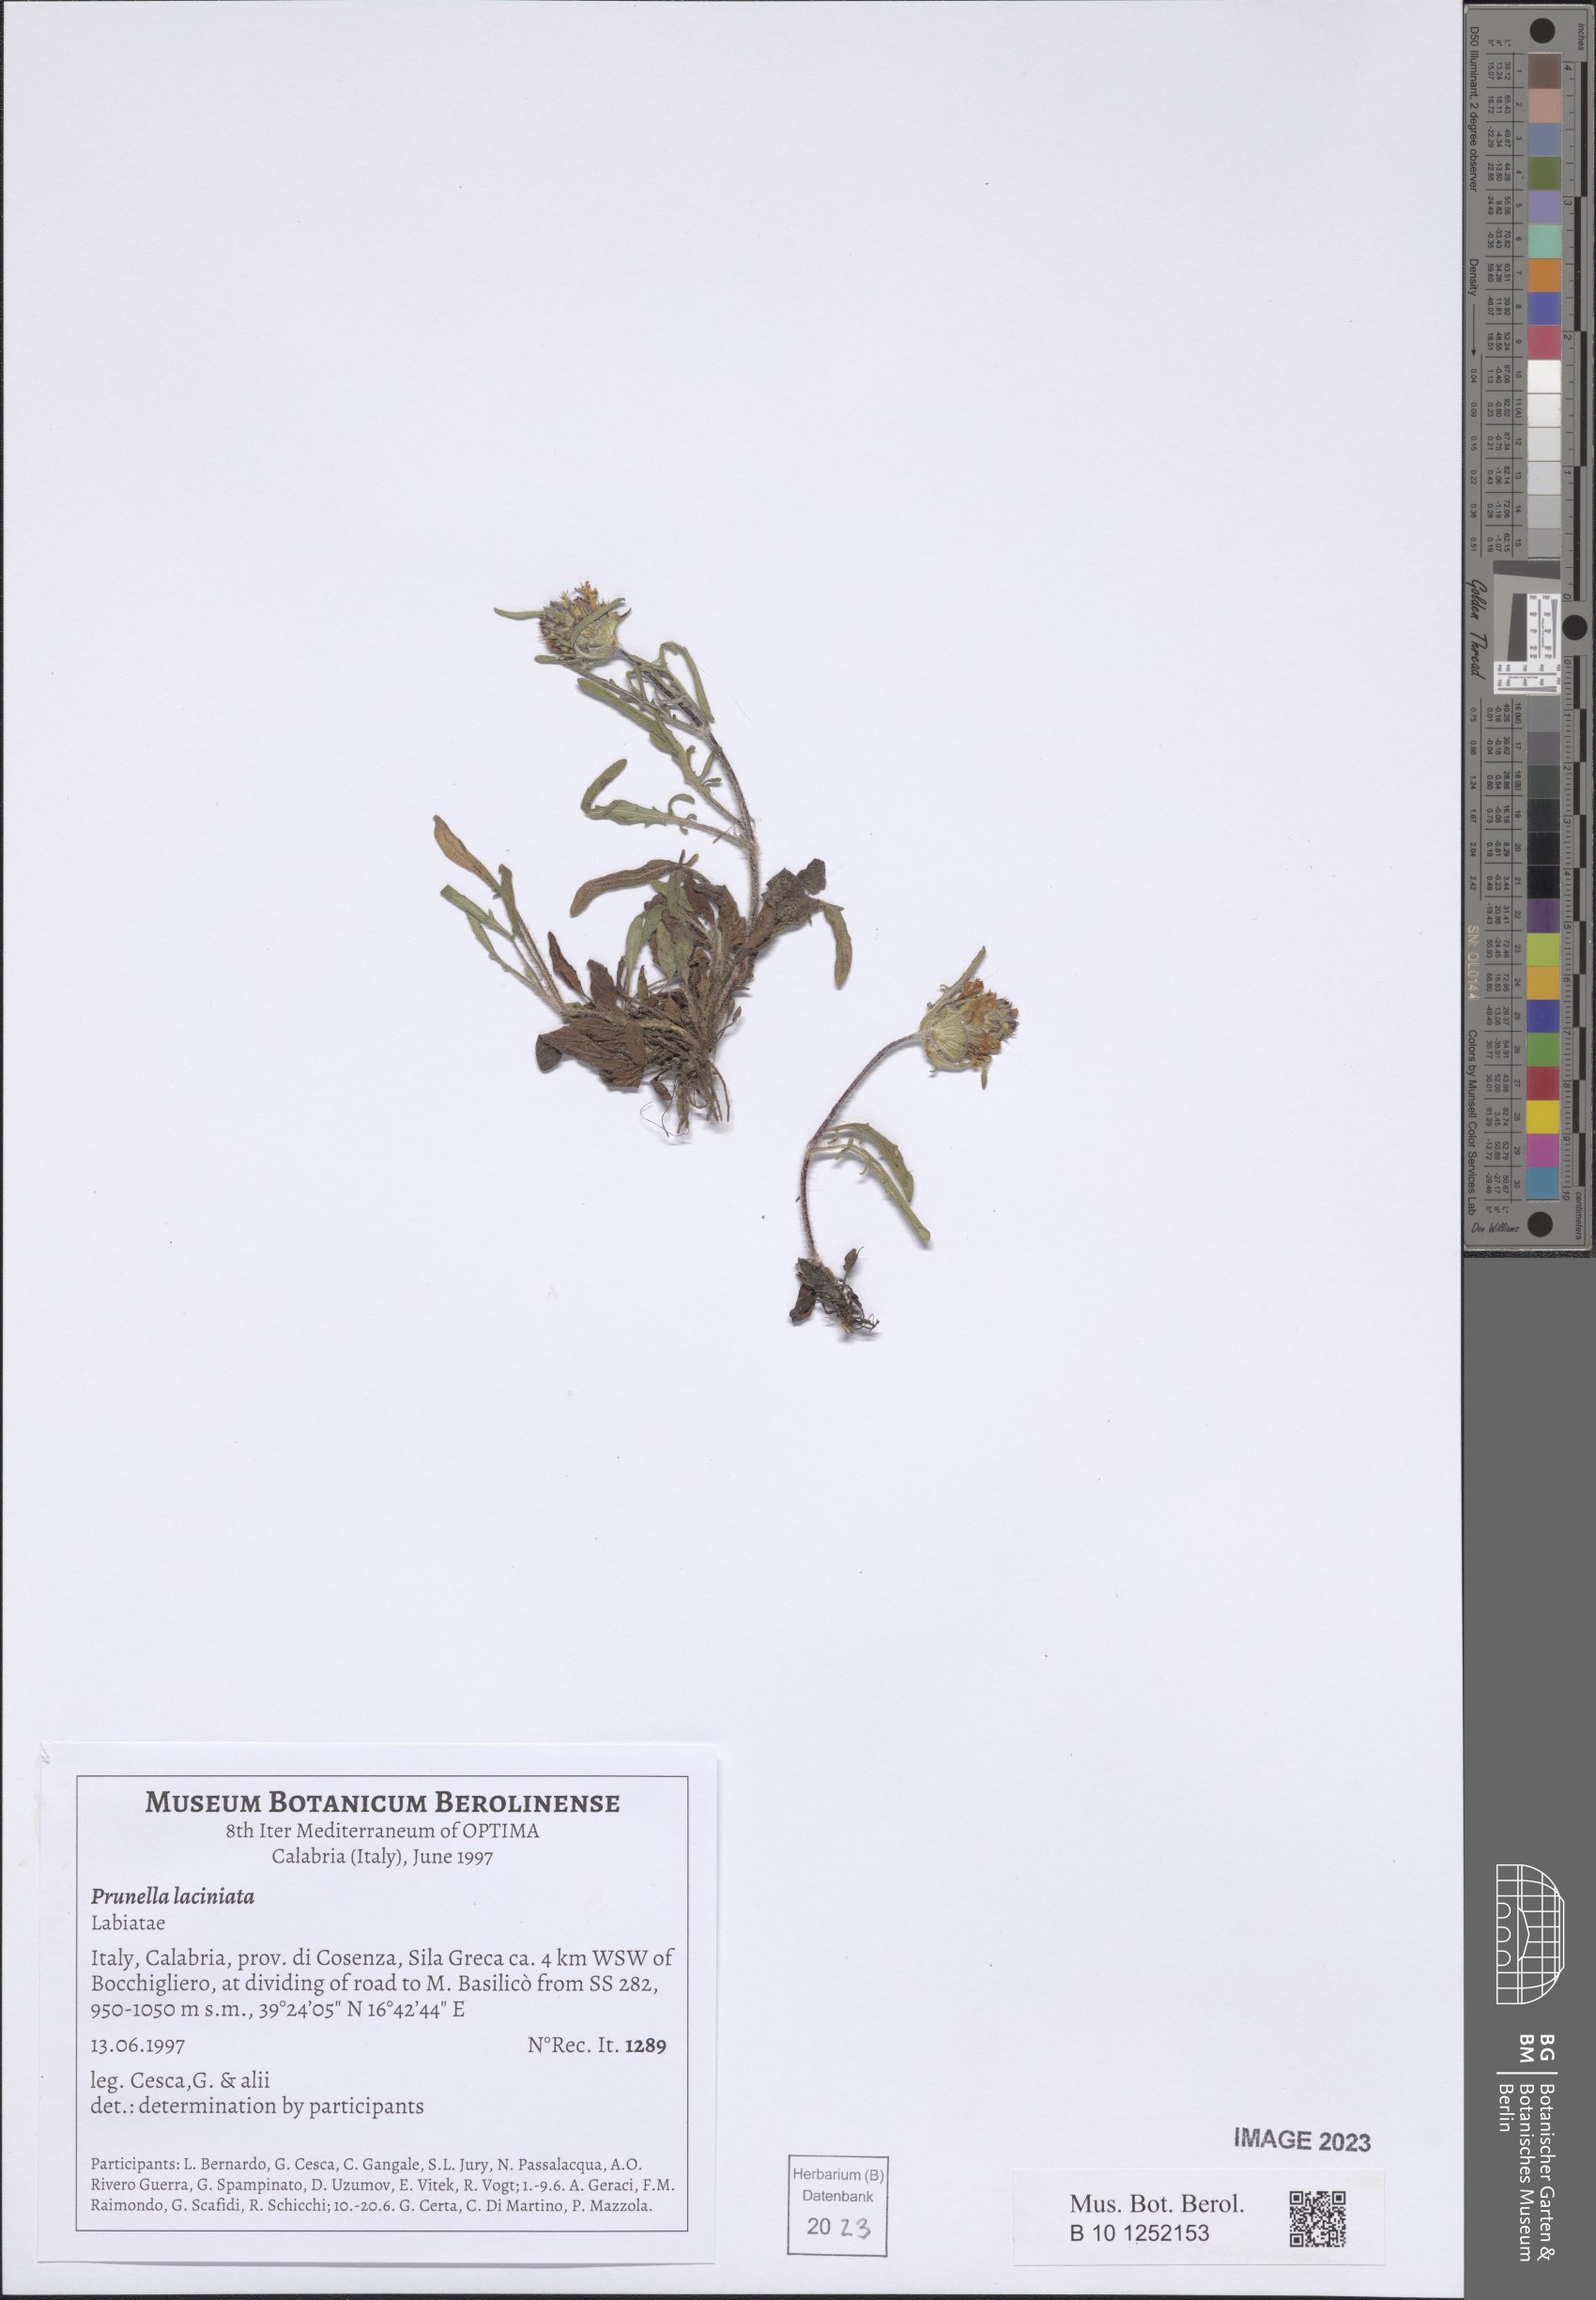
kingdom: Plantae
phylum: Tracheophyta
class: Magnoliopsida
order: Lamiales
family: Lamiaceae
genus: Prunella
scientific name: Prunella laciniata
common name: Cut-leaved selfheal
